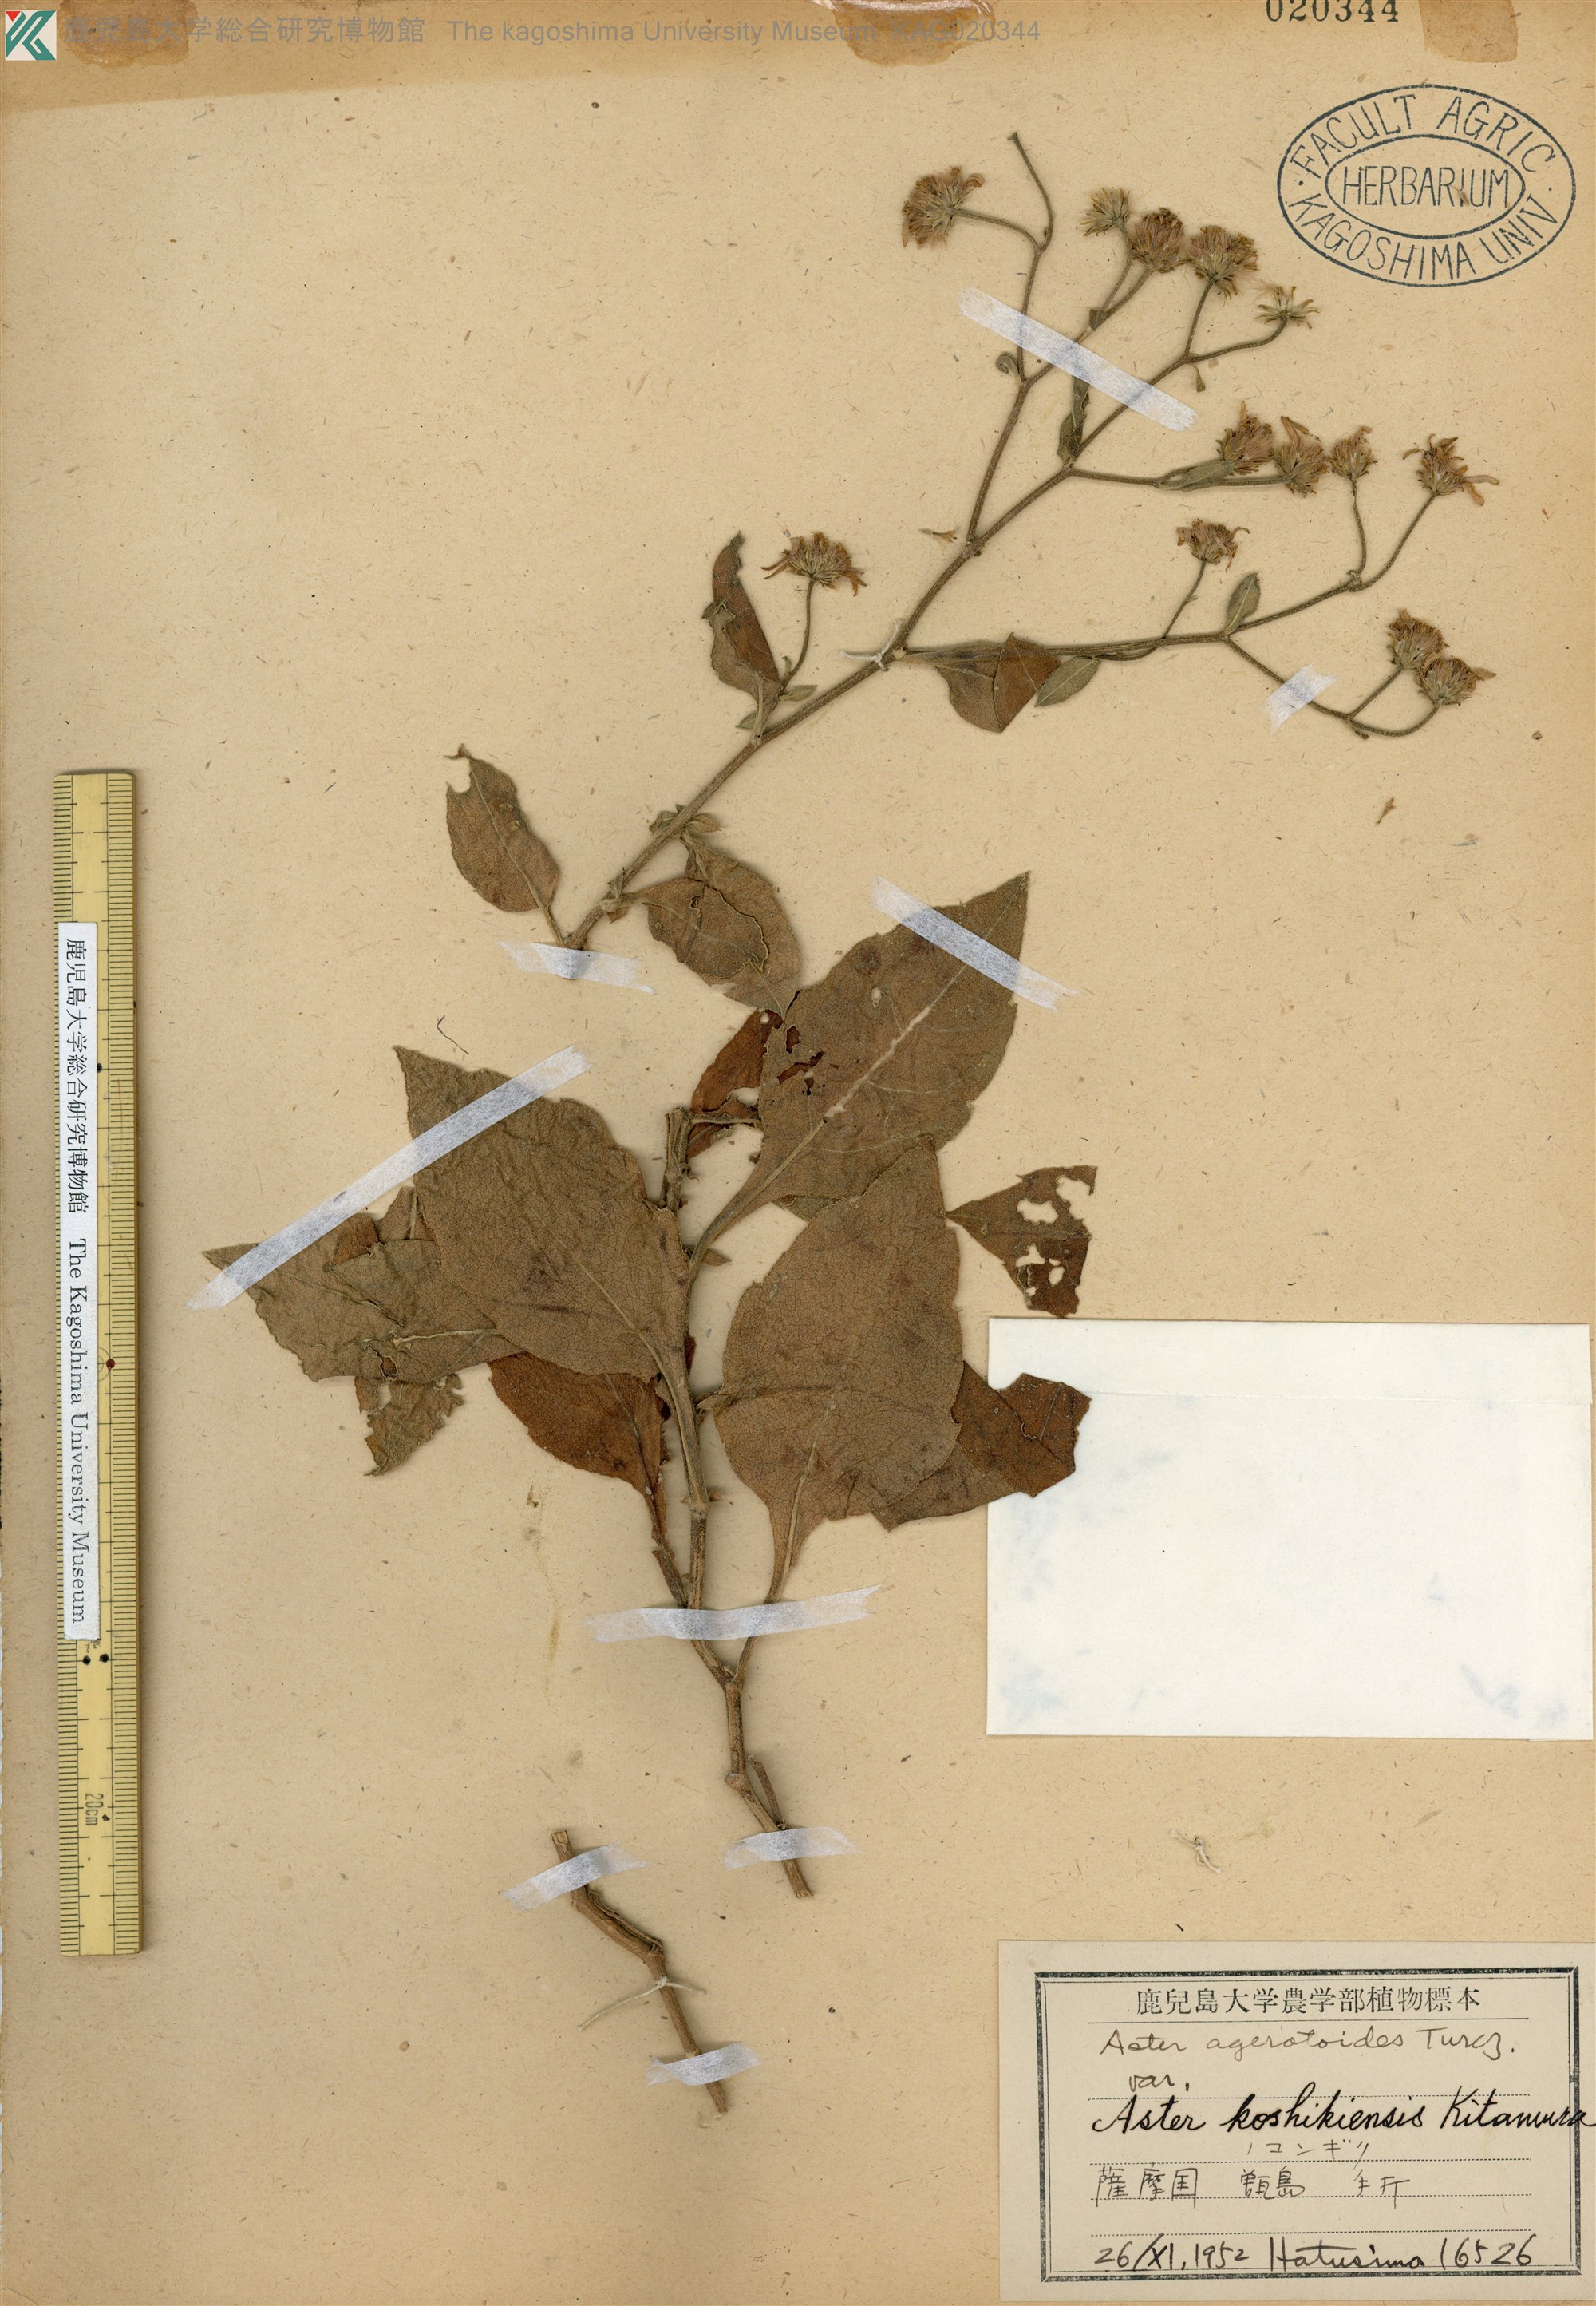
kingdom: Plantae
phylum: Tracheophyta
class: Magnoliopsida
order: Asterales
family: Asteraceae
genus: Aster
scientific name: Aster koshikiensis
